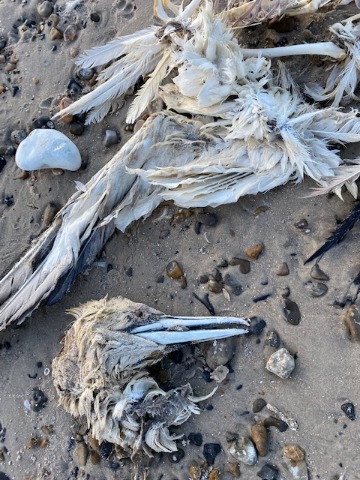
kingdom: Animalia
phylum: Chordata
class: Aves
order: Suliformes
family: Sulidae
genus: Morus
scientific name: Morus bassanus
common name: Sule
